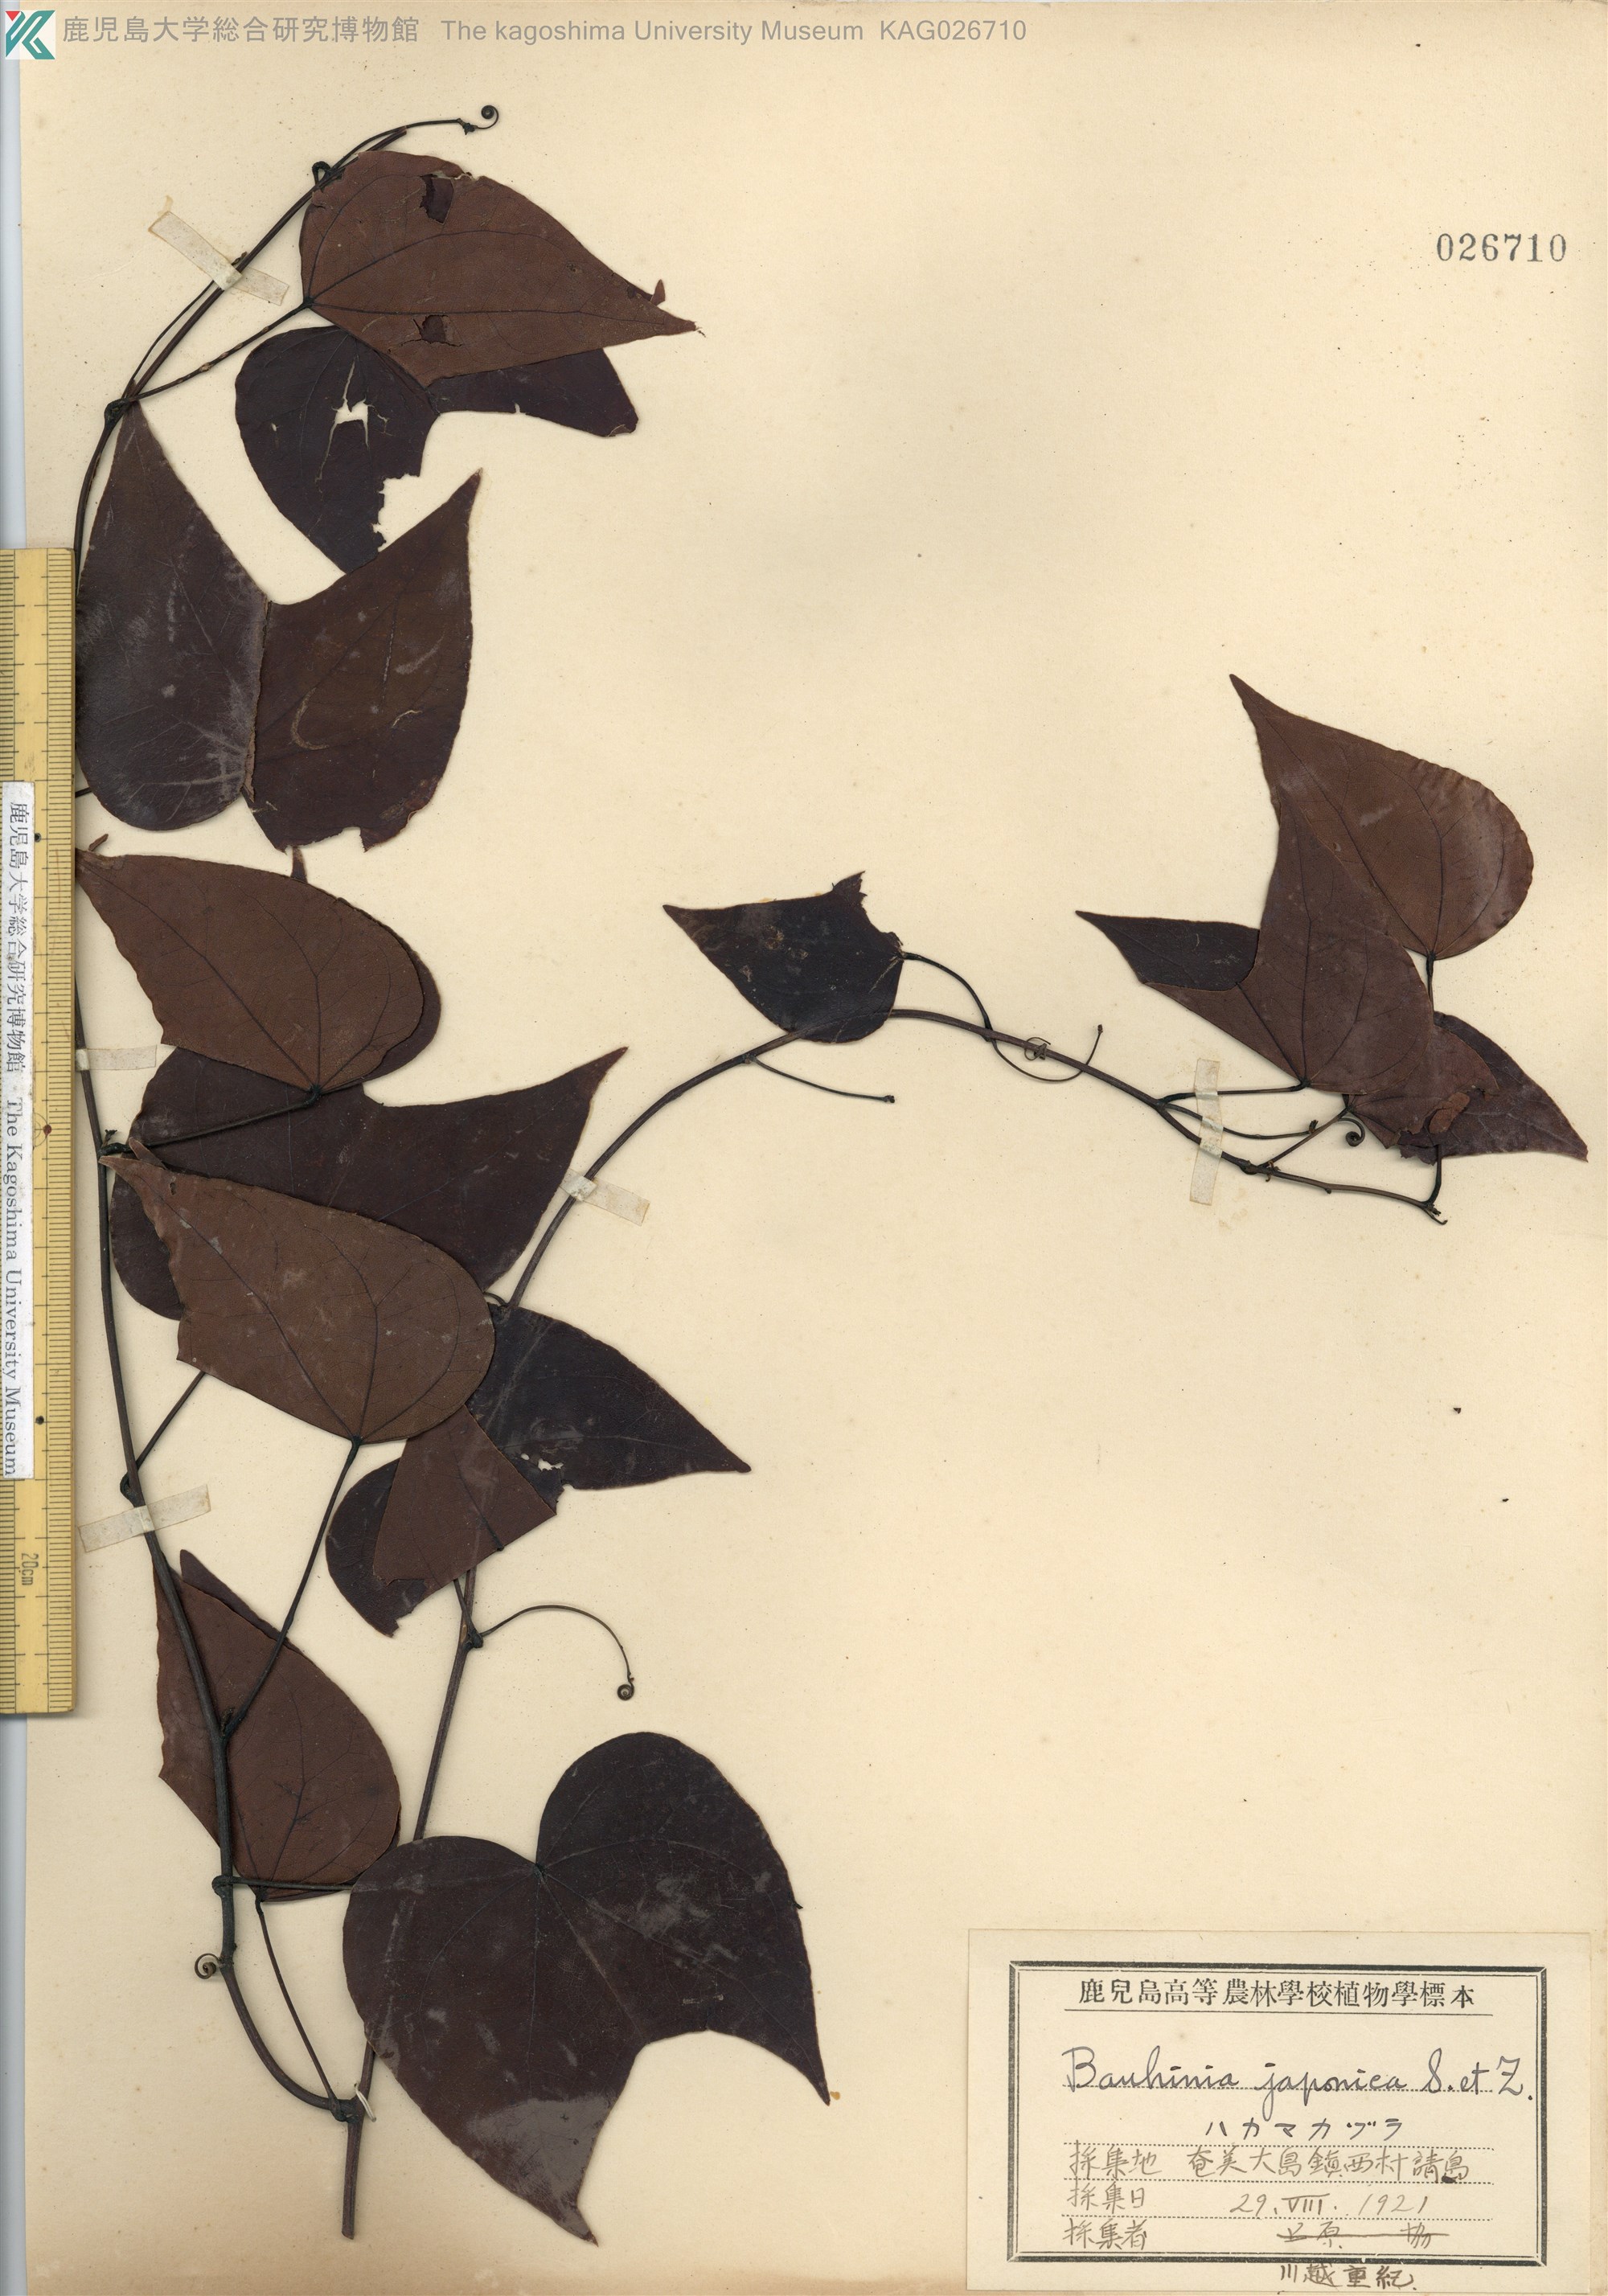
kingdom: Plantae
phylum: Tracheophyta
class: Magnoliopsida
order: Fabales
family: Fabaceae
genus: Phanera
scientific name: Phanera japonica
